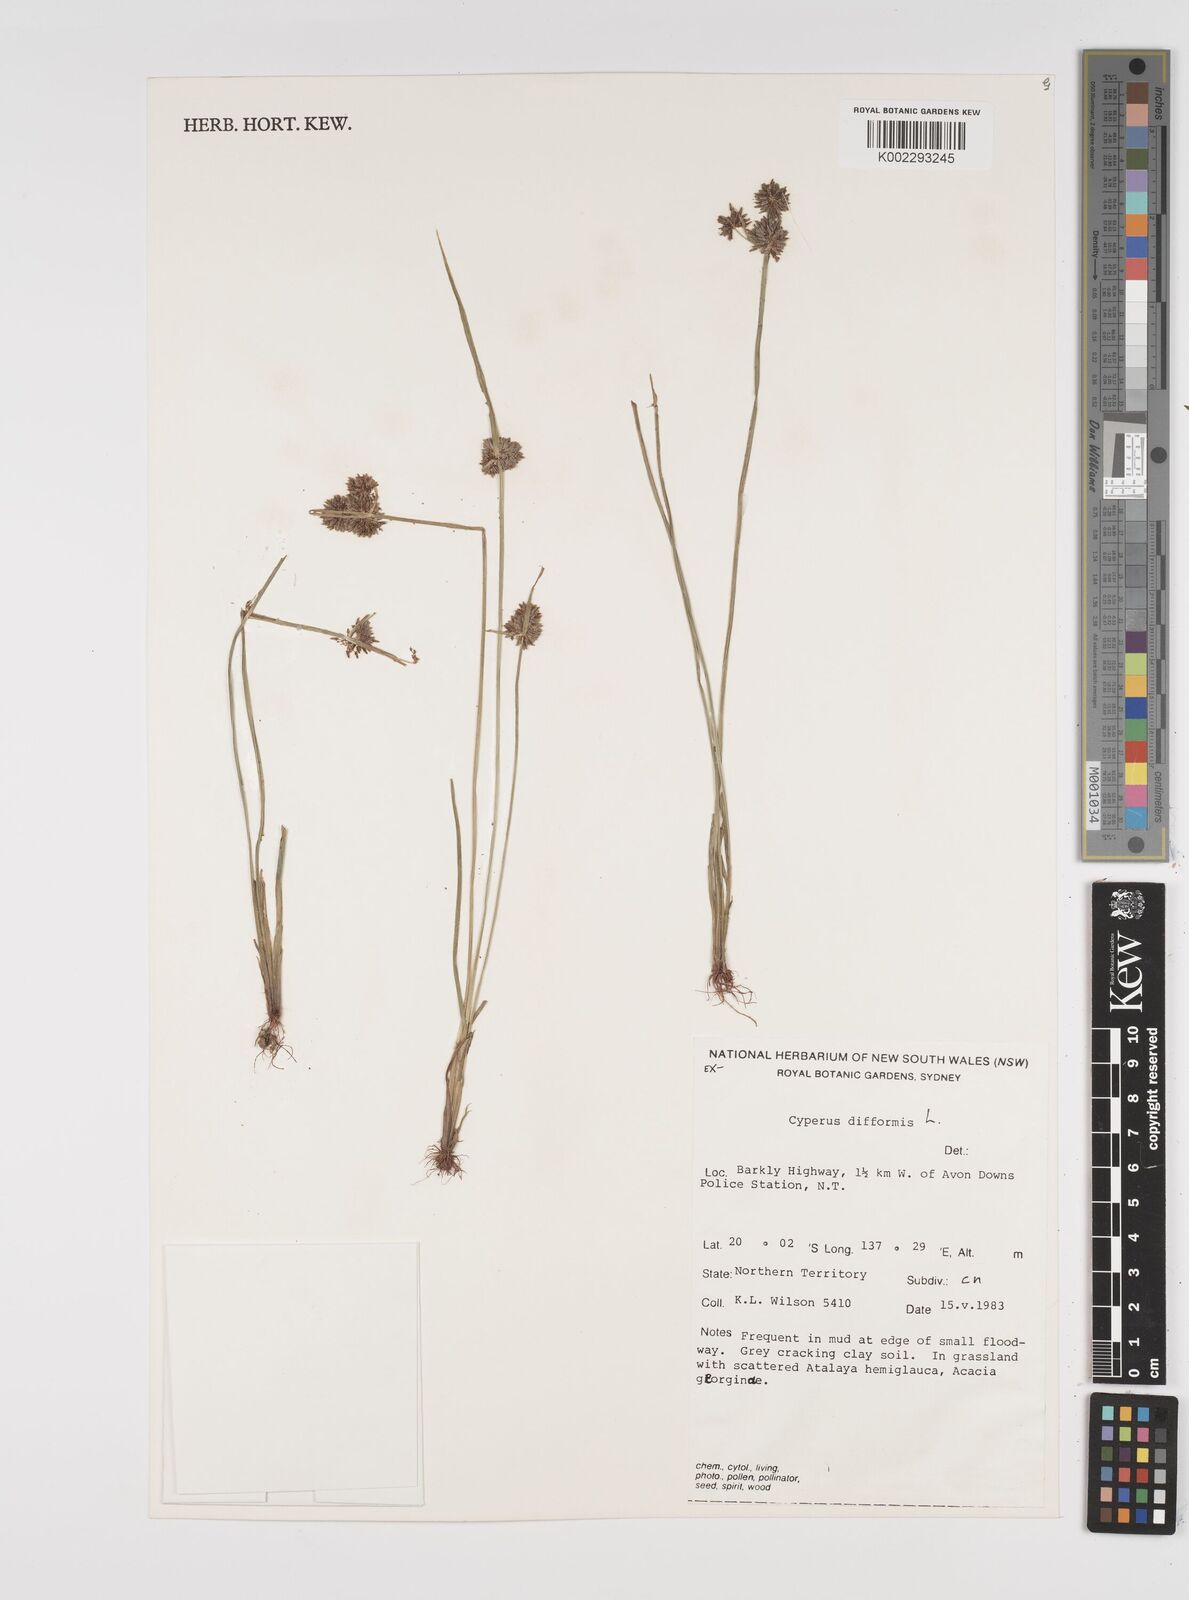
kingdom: Plantae
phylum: Tracheophyta
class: Liliopsida
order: Poales
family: Cyperaceae
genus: Cyperus
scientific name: Cyperus difformis
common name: Variable flatsedge
